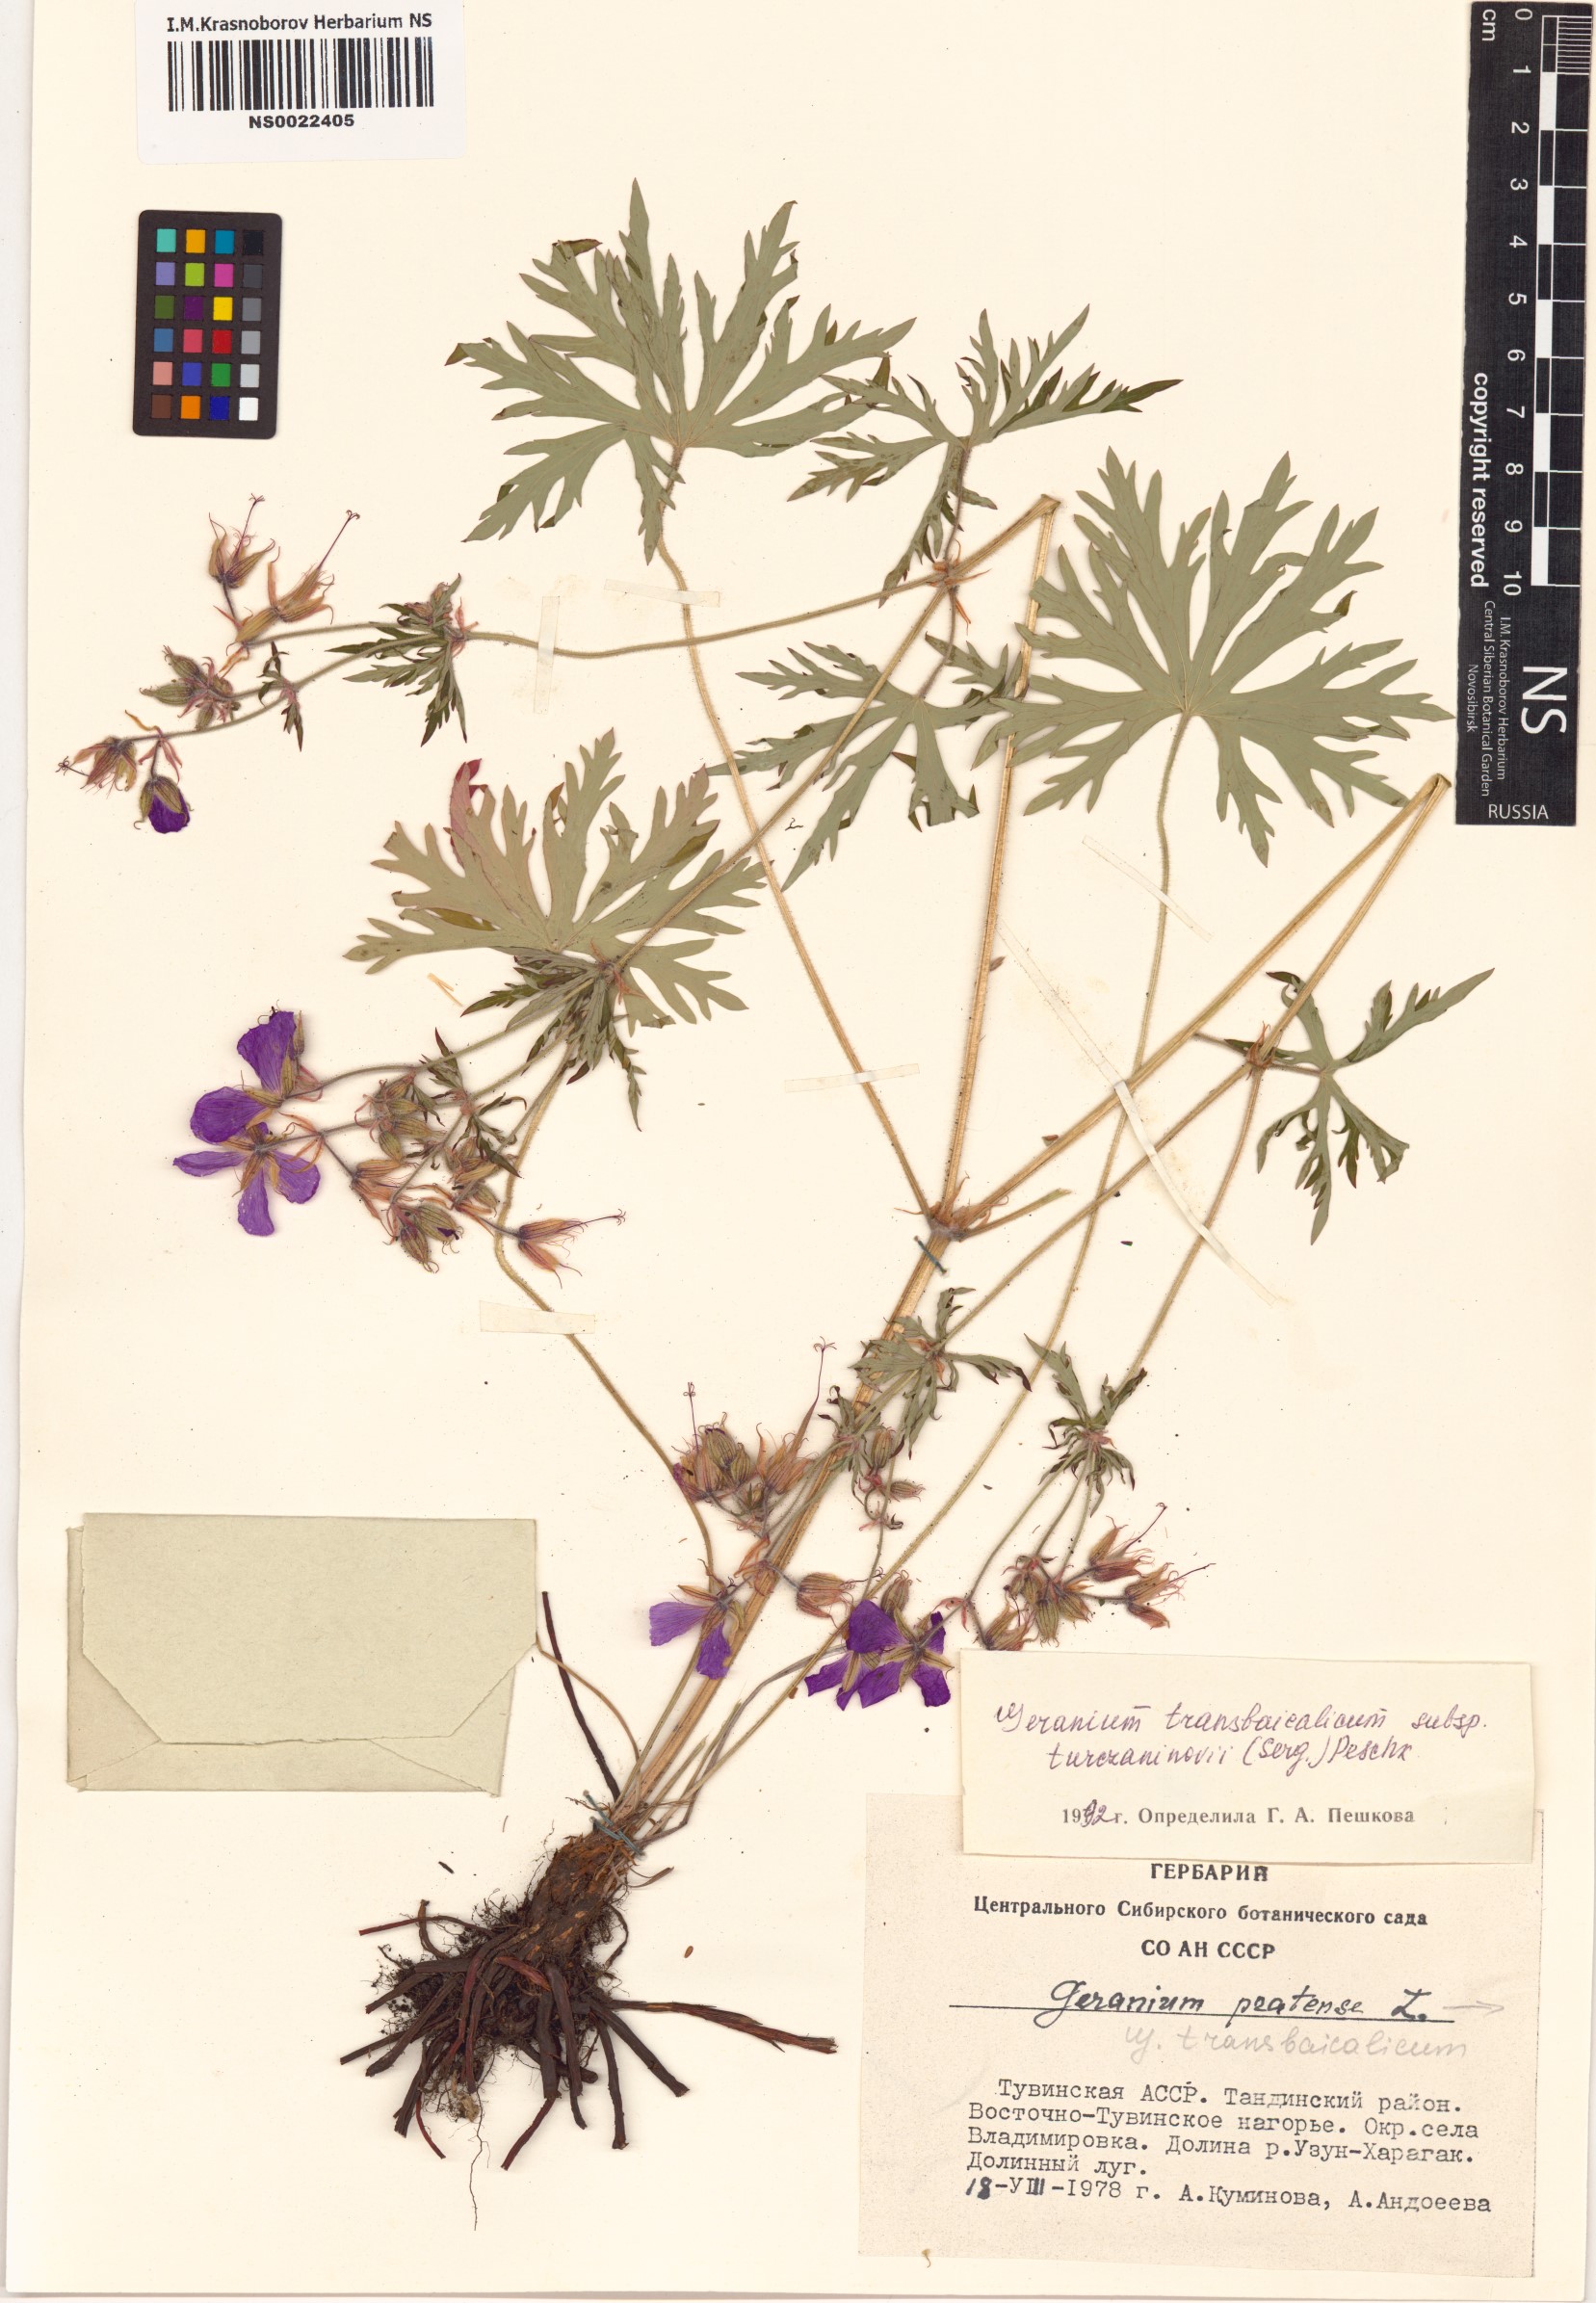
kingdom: Plantae
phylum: Tracheophyta
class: Magnoliopsida
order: Geraniales
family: Geraniaceae
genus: Geranium
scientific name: Geranium pratense
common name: Meadow crane's-bill
